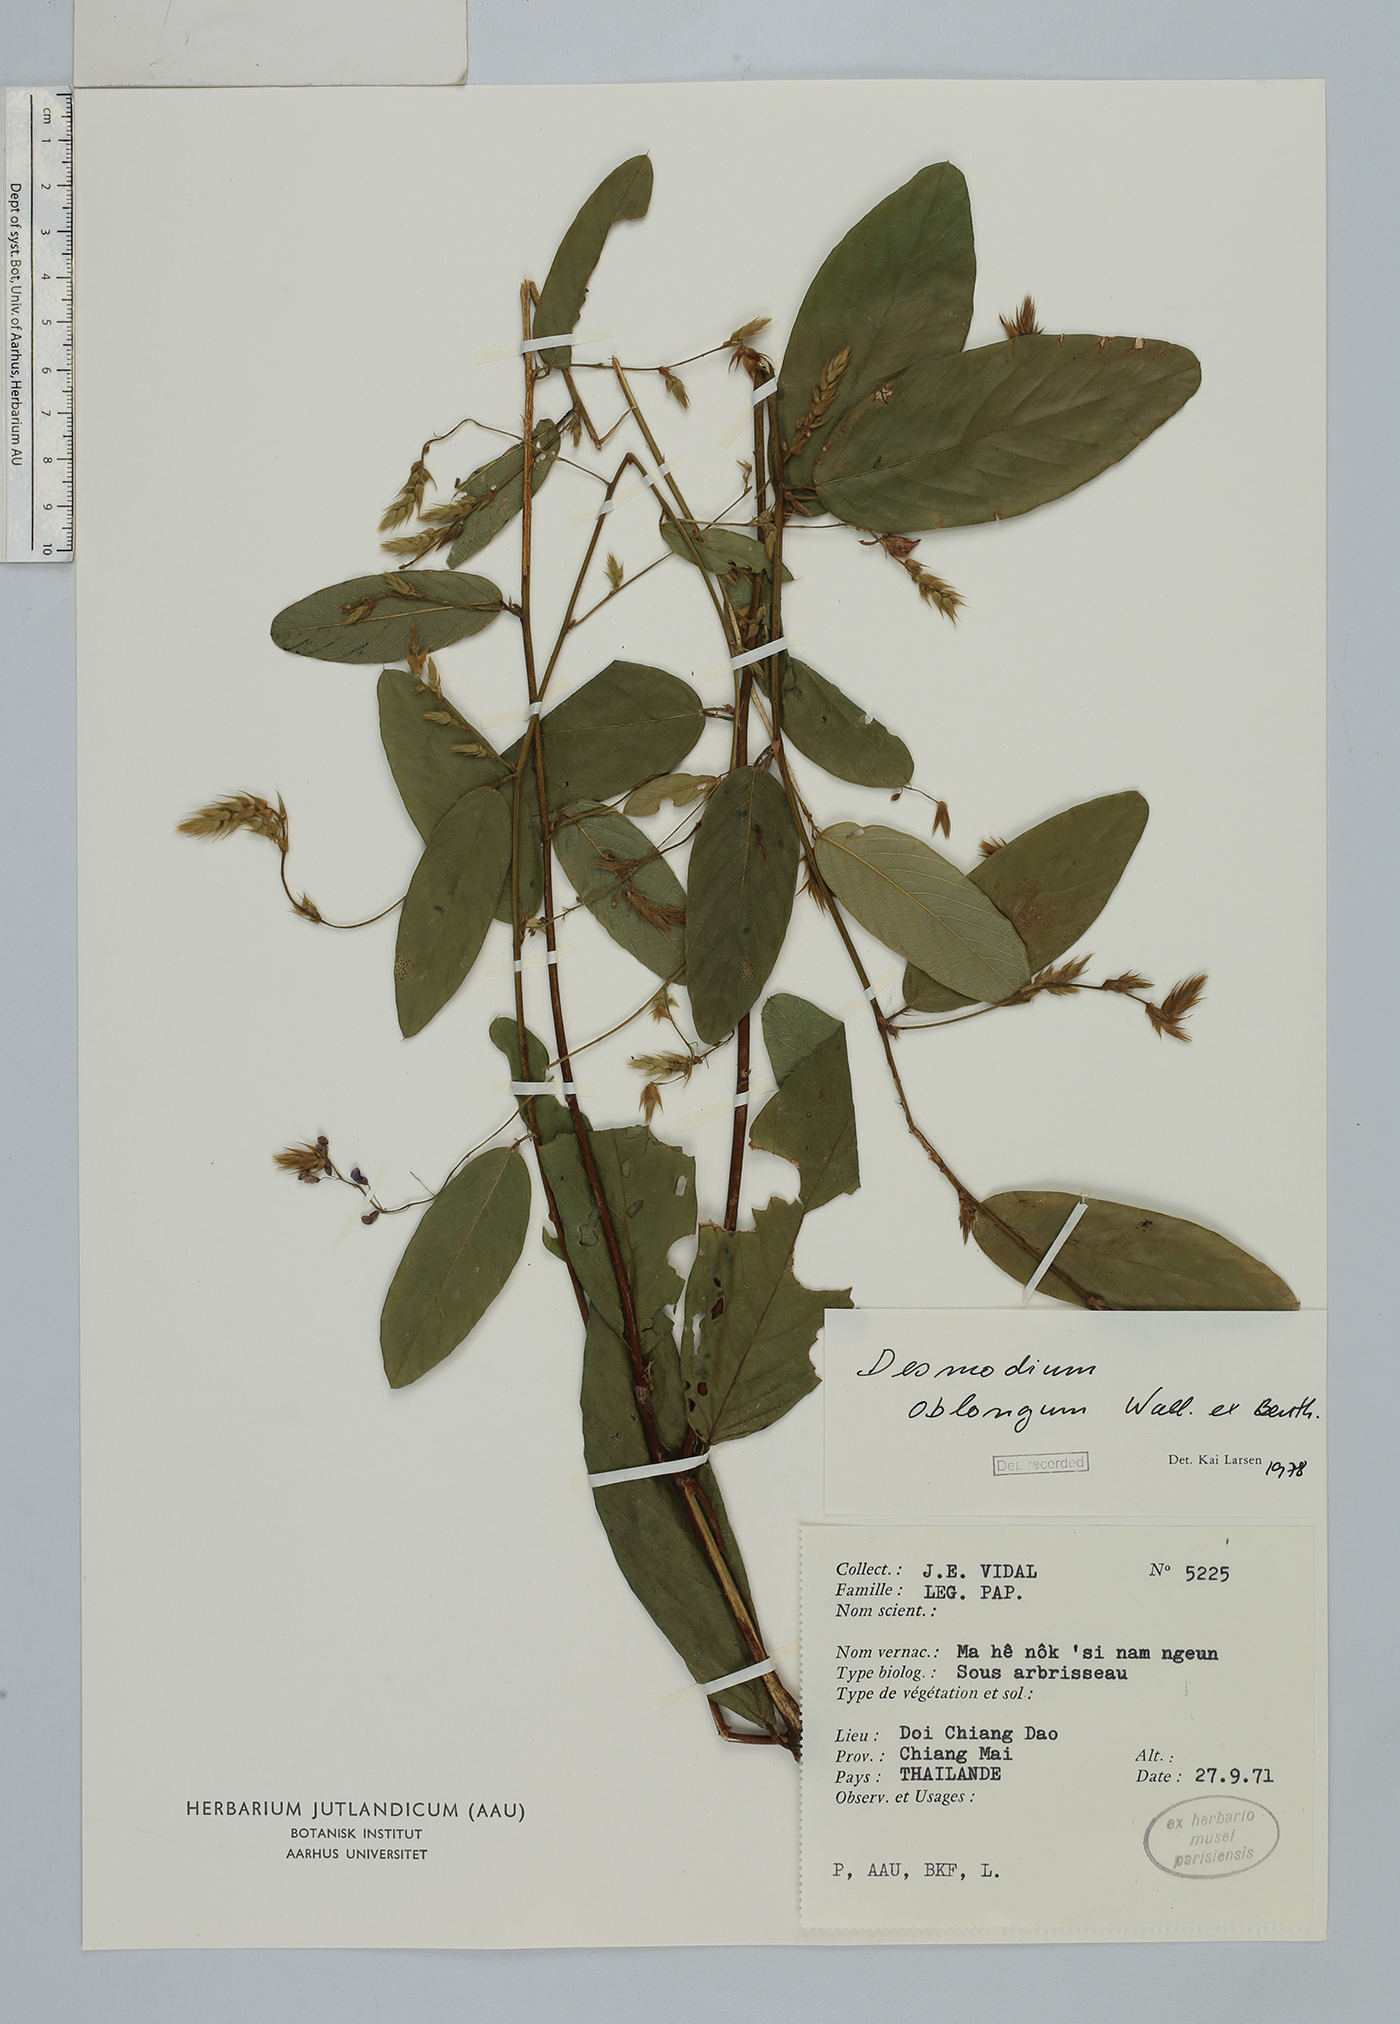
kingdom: Plantae
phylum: Tracheophyta
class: Magnoliopsida
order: Fabales
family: Fabaceae
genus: Uraria
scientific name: Uraria oblonga
